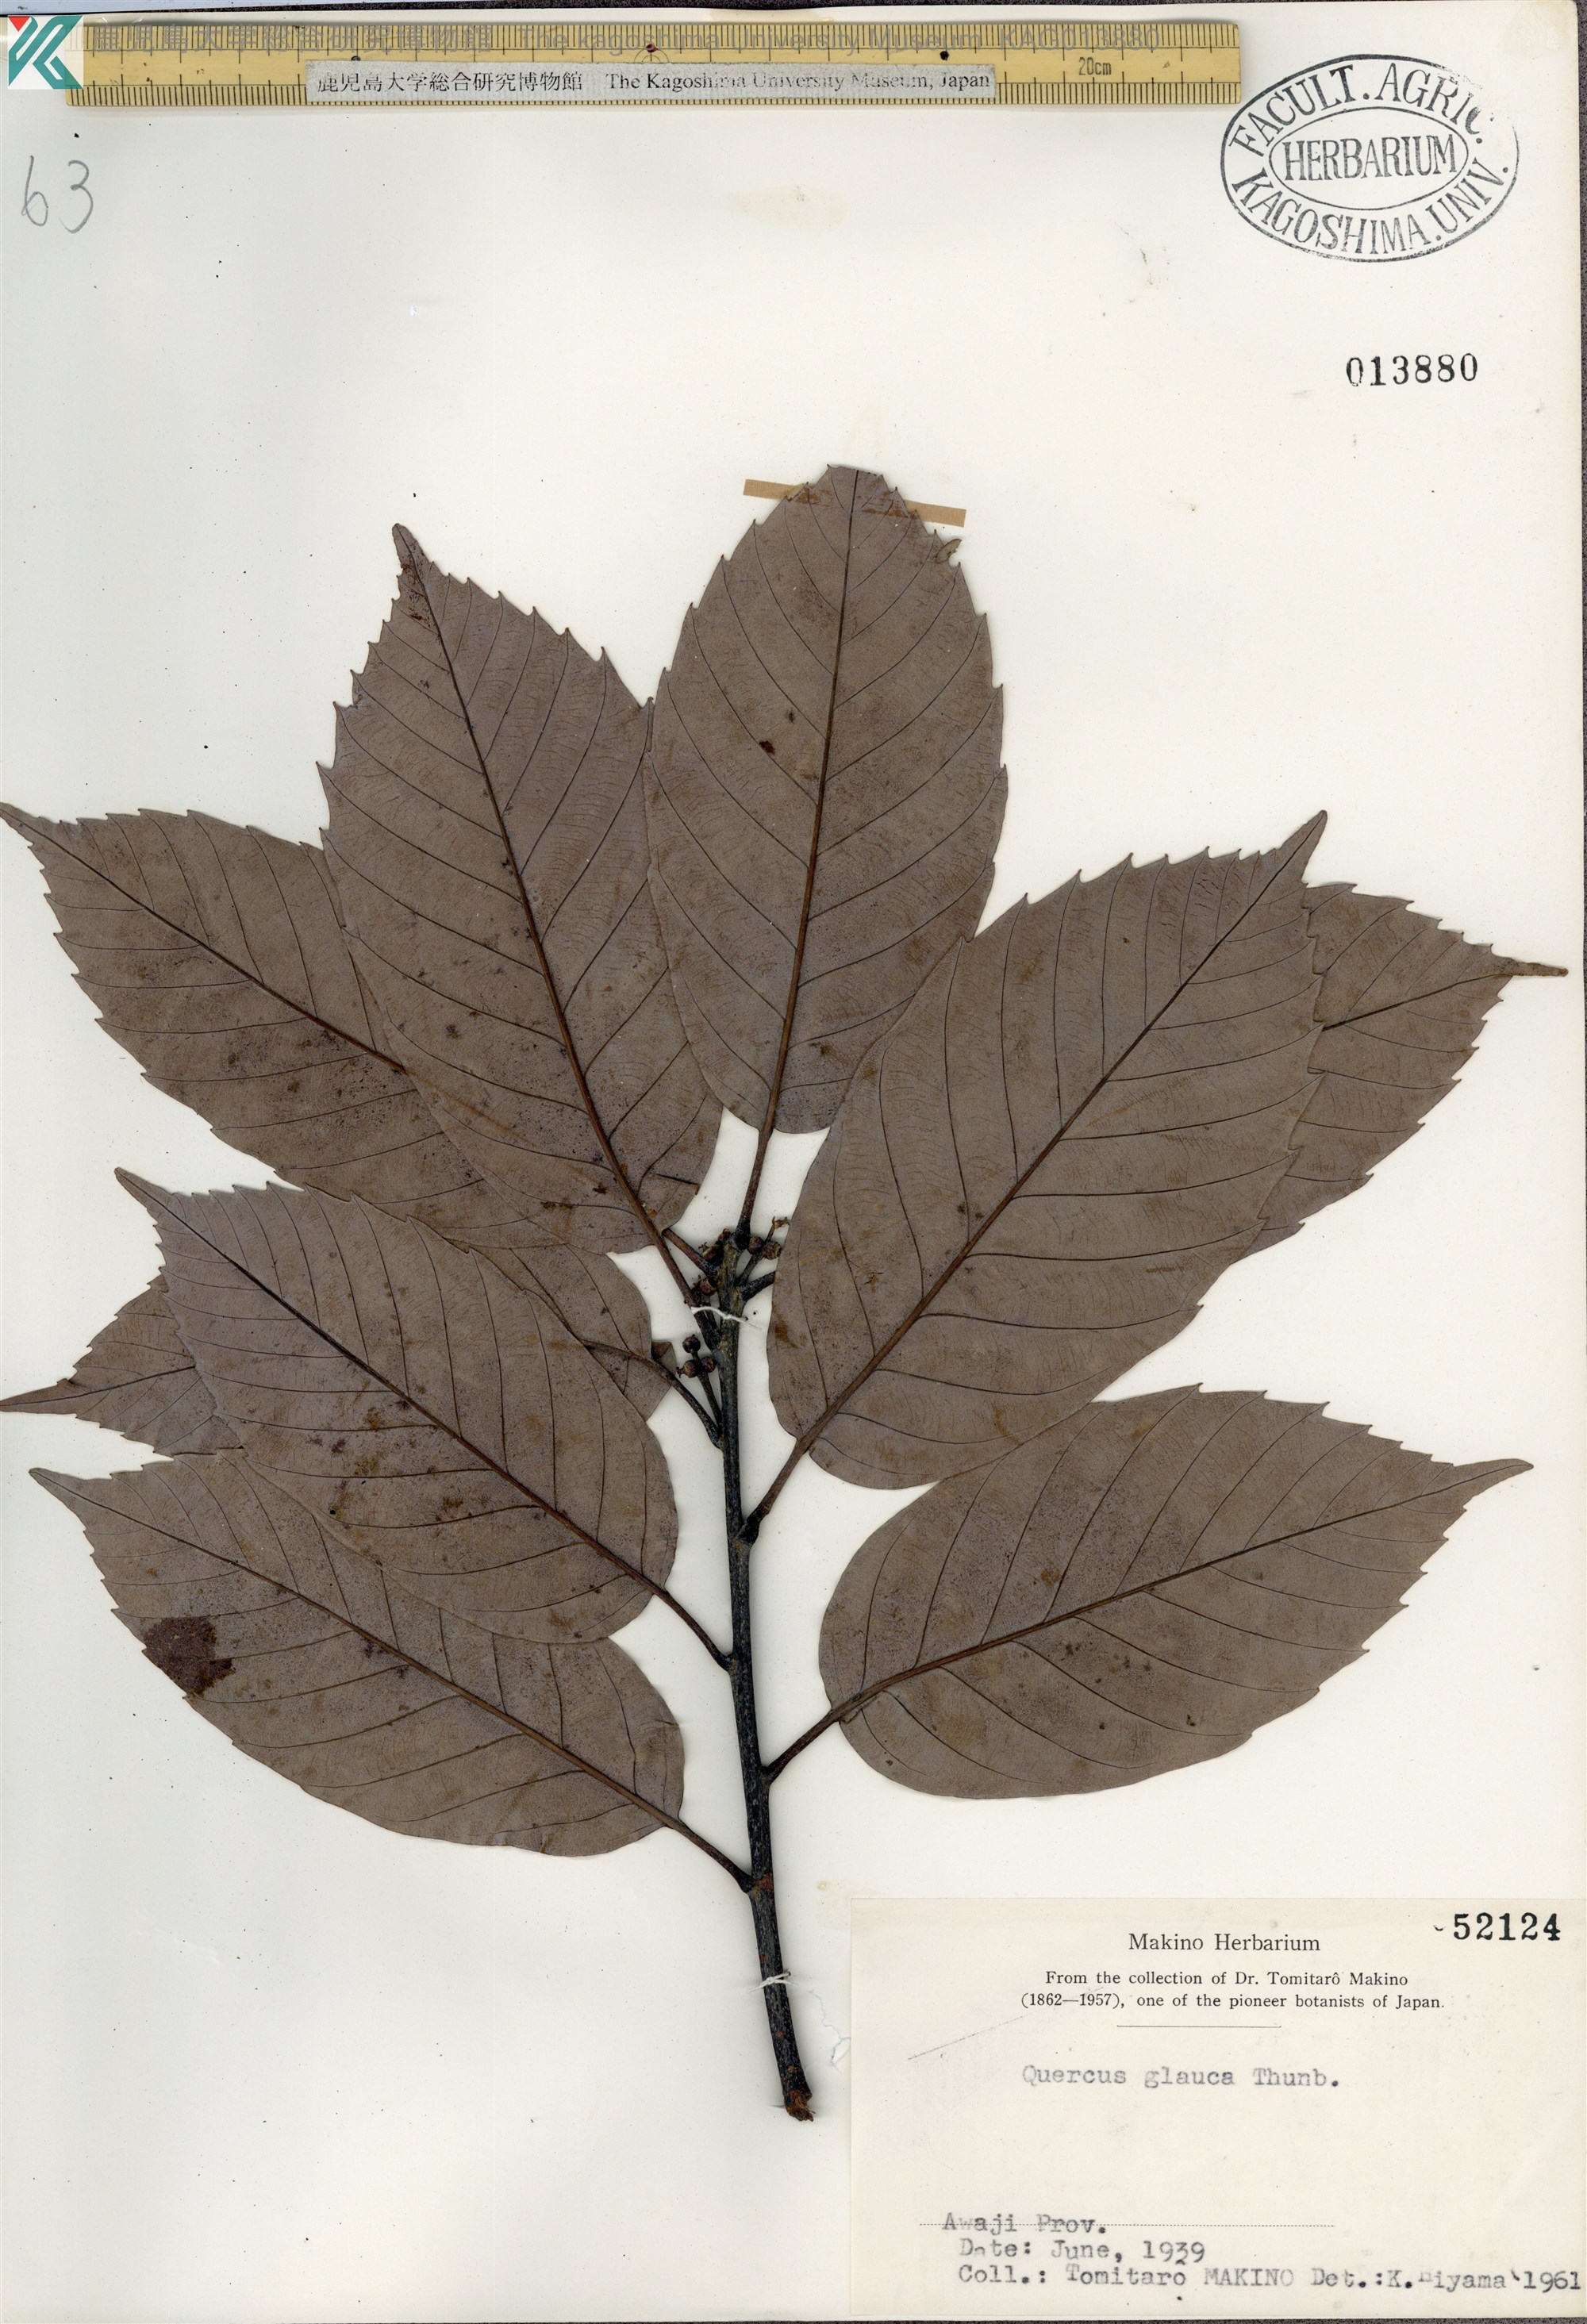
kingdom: Plantae
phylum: Tracheophyta
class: Magnoliopsida
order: Fagales
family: Fagaceae
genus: Quercus
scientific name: Quercus glauca
